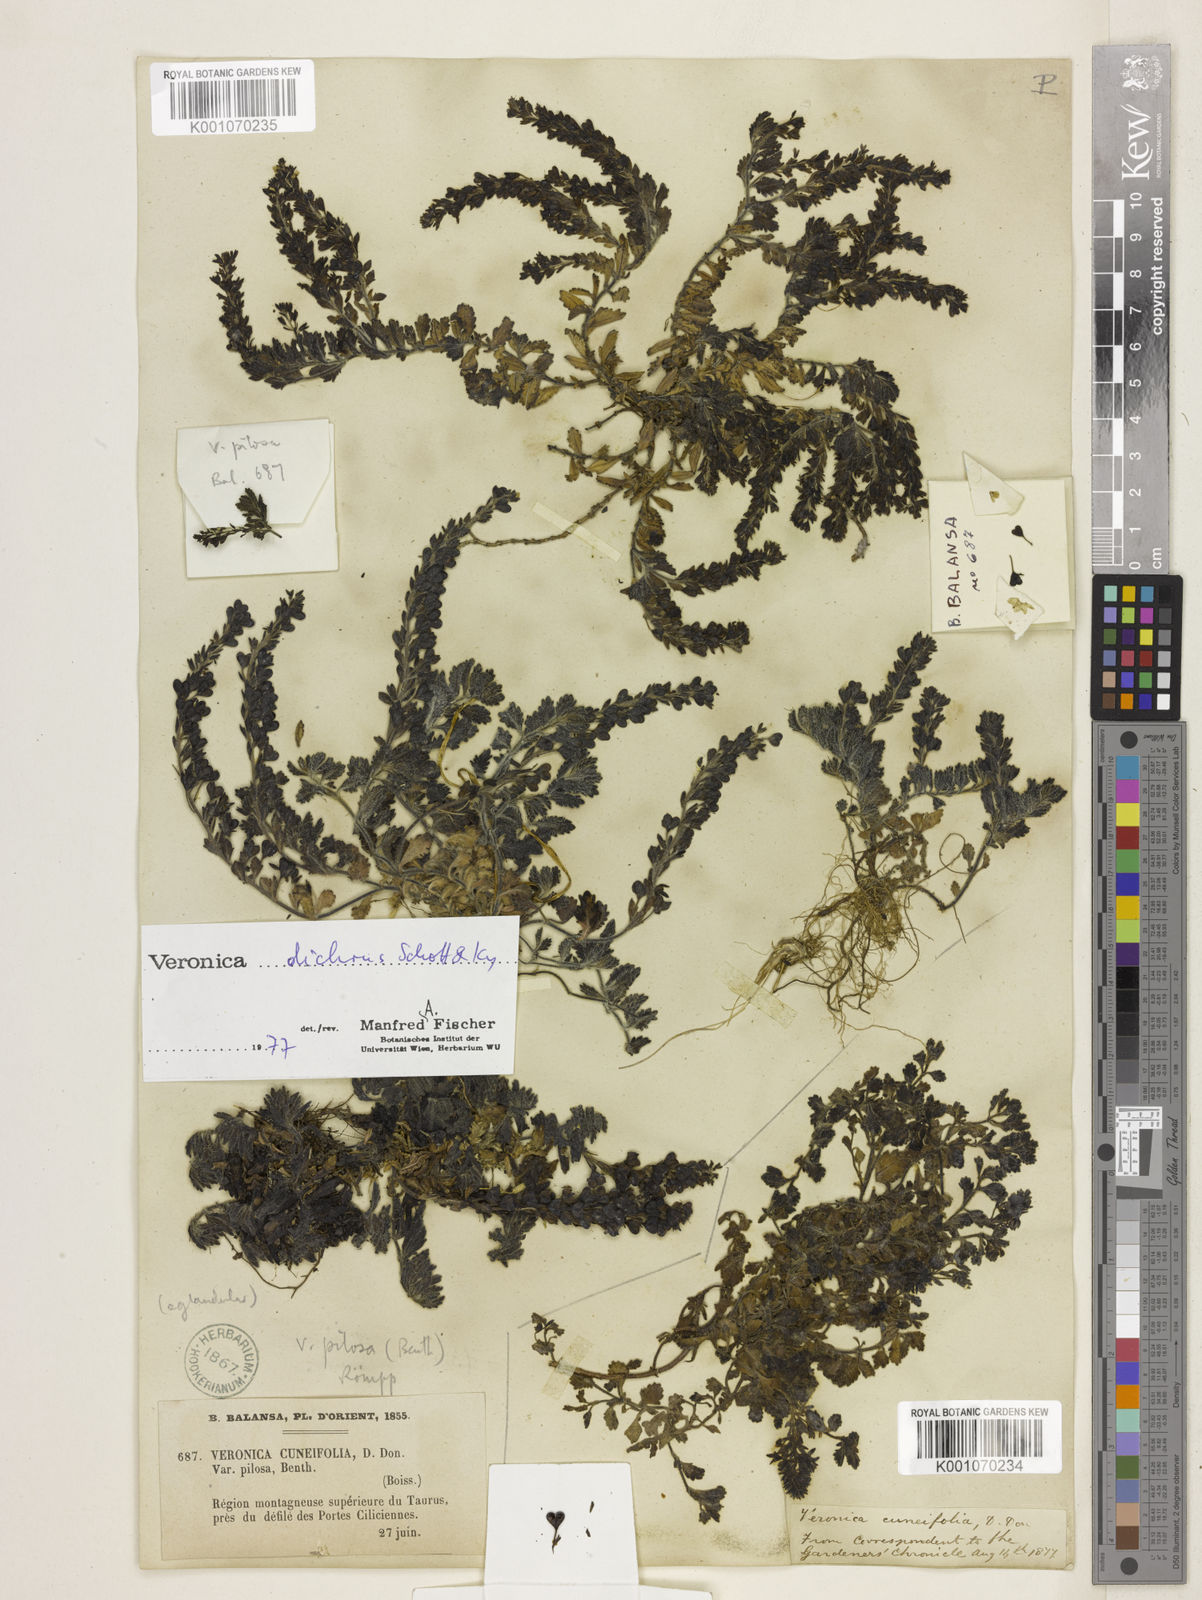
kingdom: Plantae
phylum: Tracheophyta
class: Magnoliopsida
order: Lamiales
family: Plantaginaceae
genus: Veronica
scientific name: Veronica
